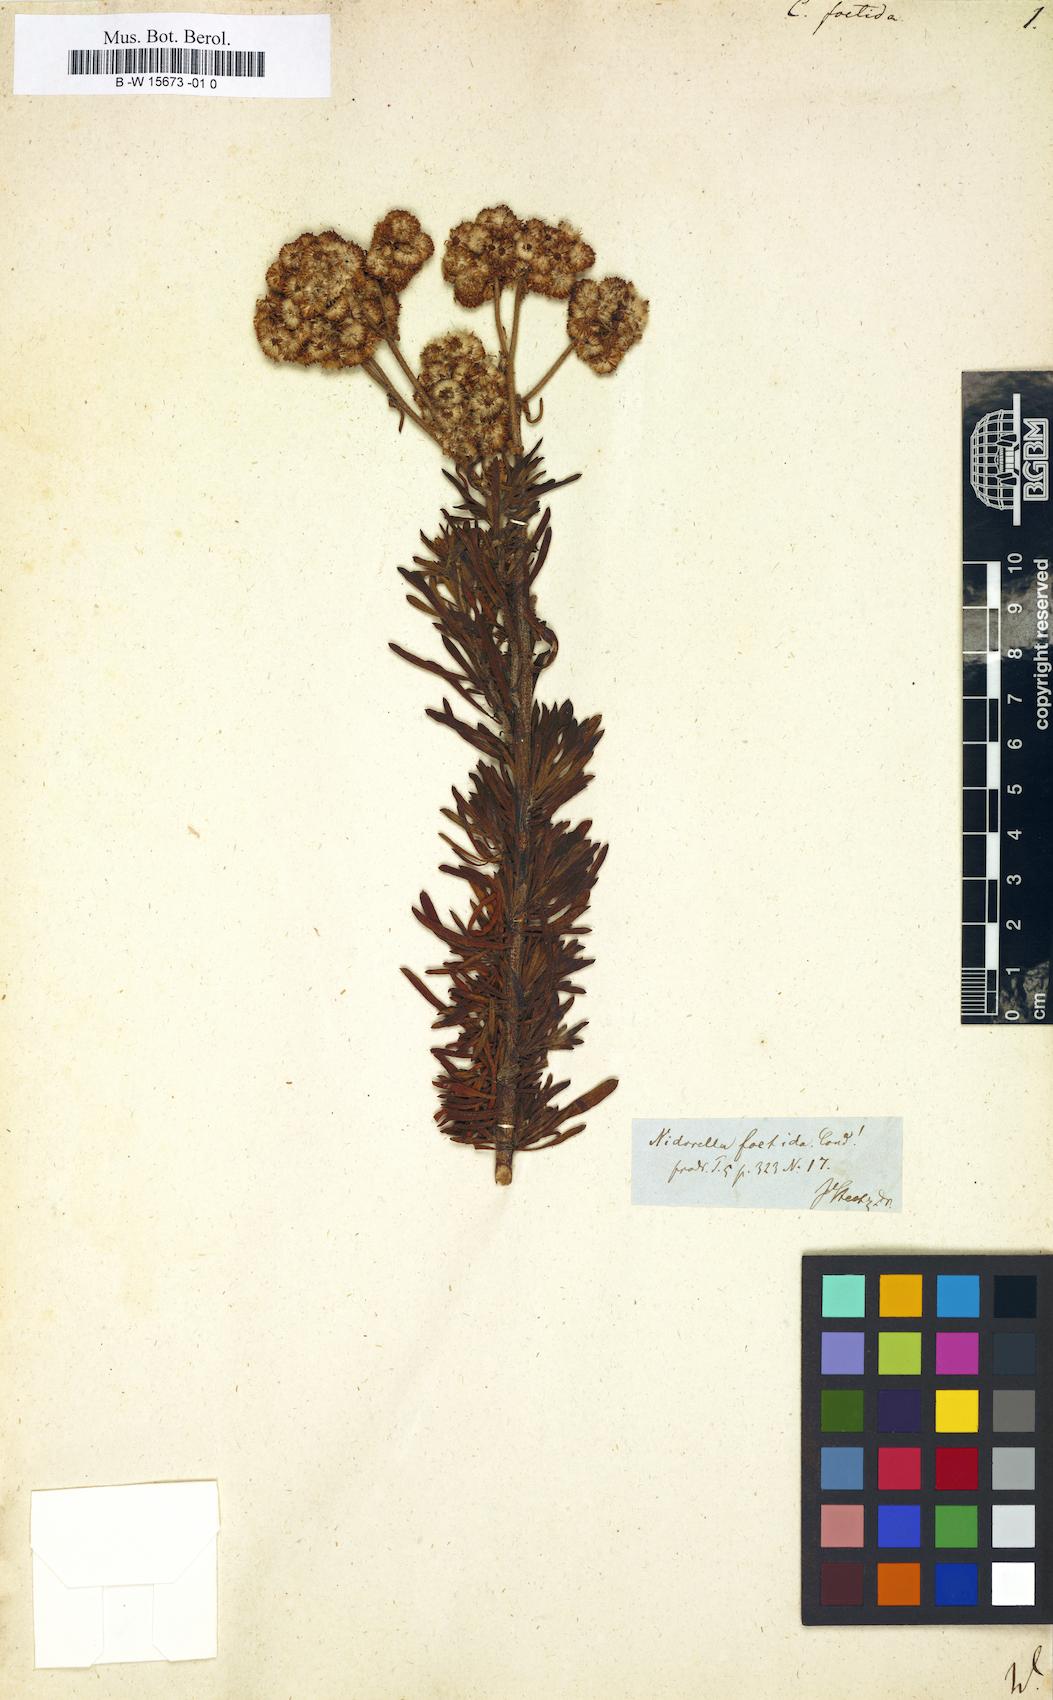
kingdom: Plantae
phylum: Tracheophyta
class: Magnoliopsida
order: Asterales
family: Asteraceae
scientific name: Asteraceae
